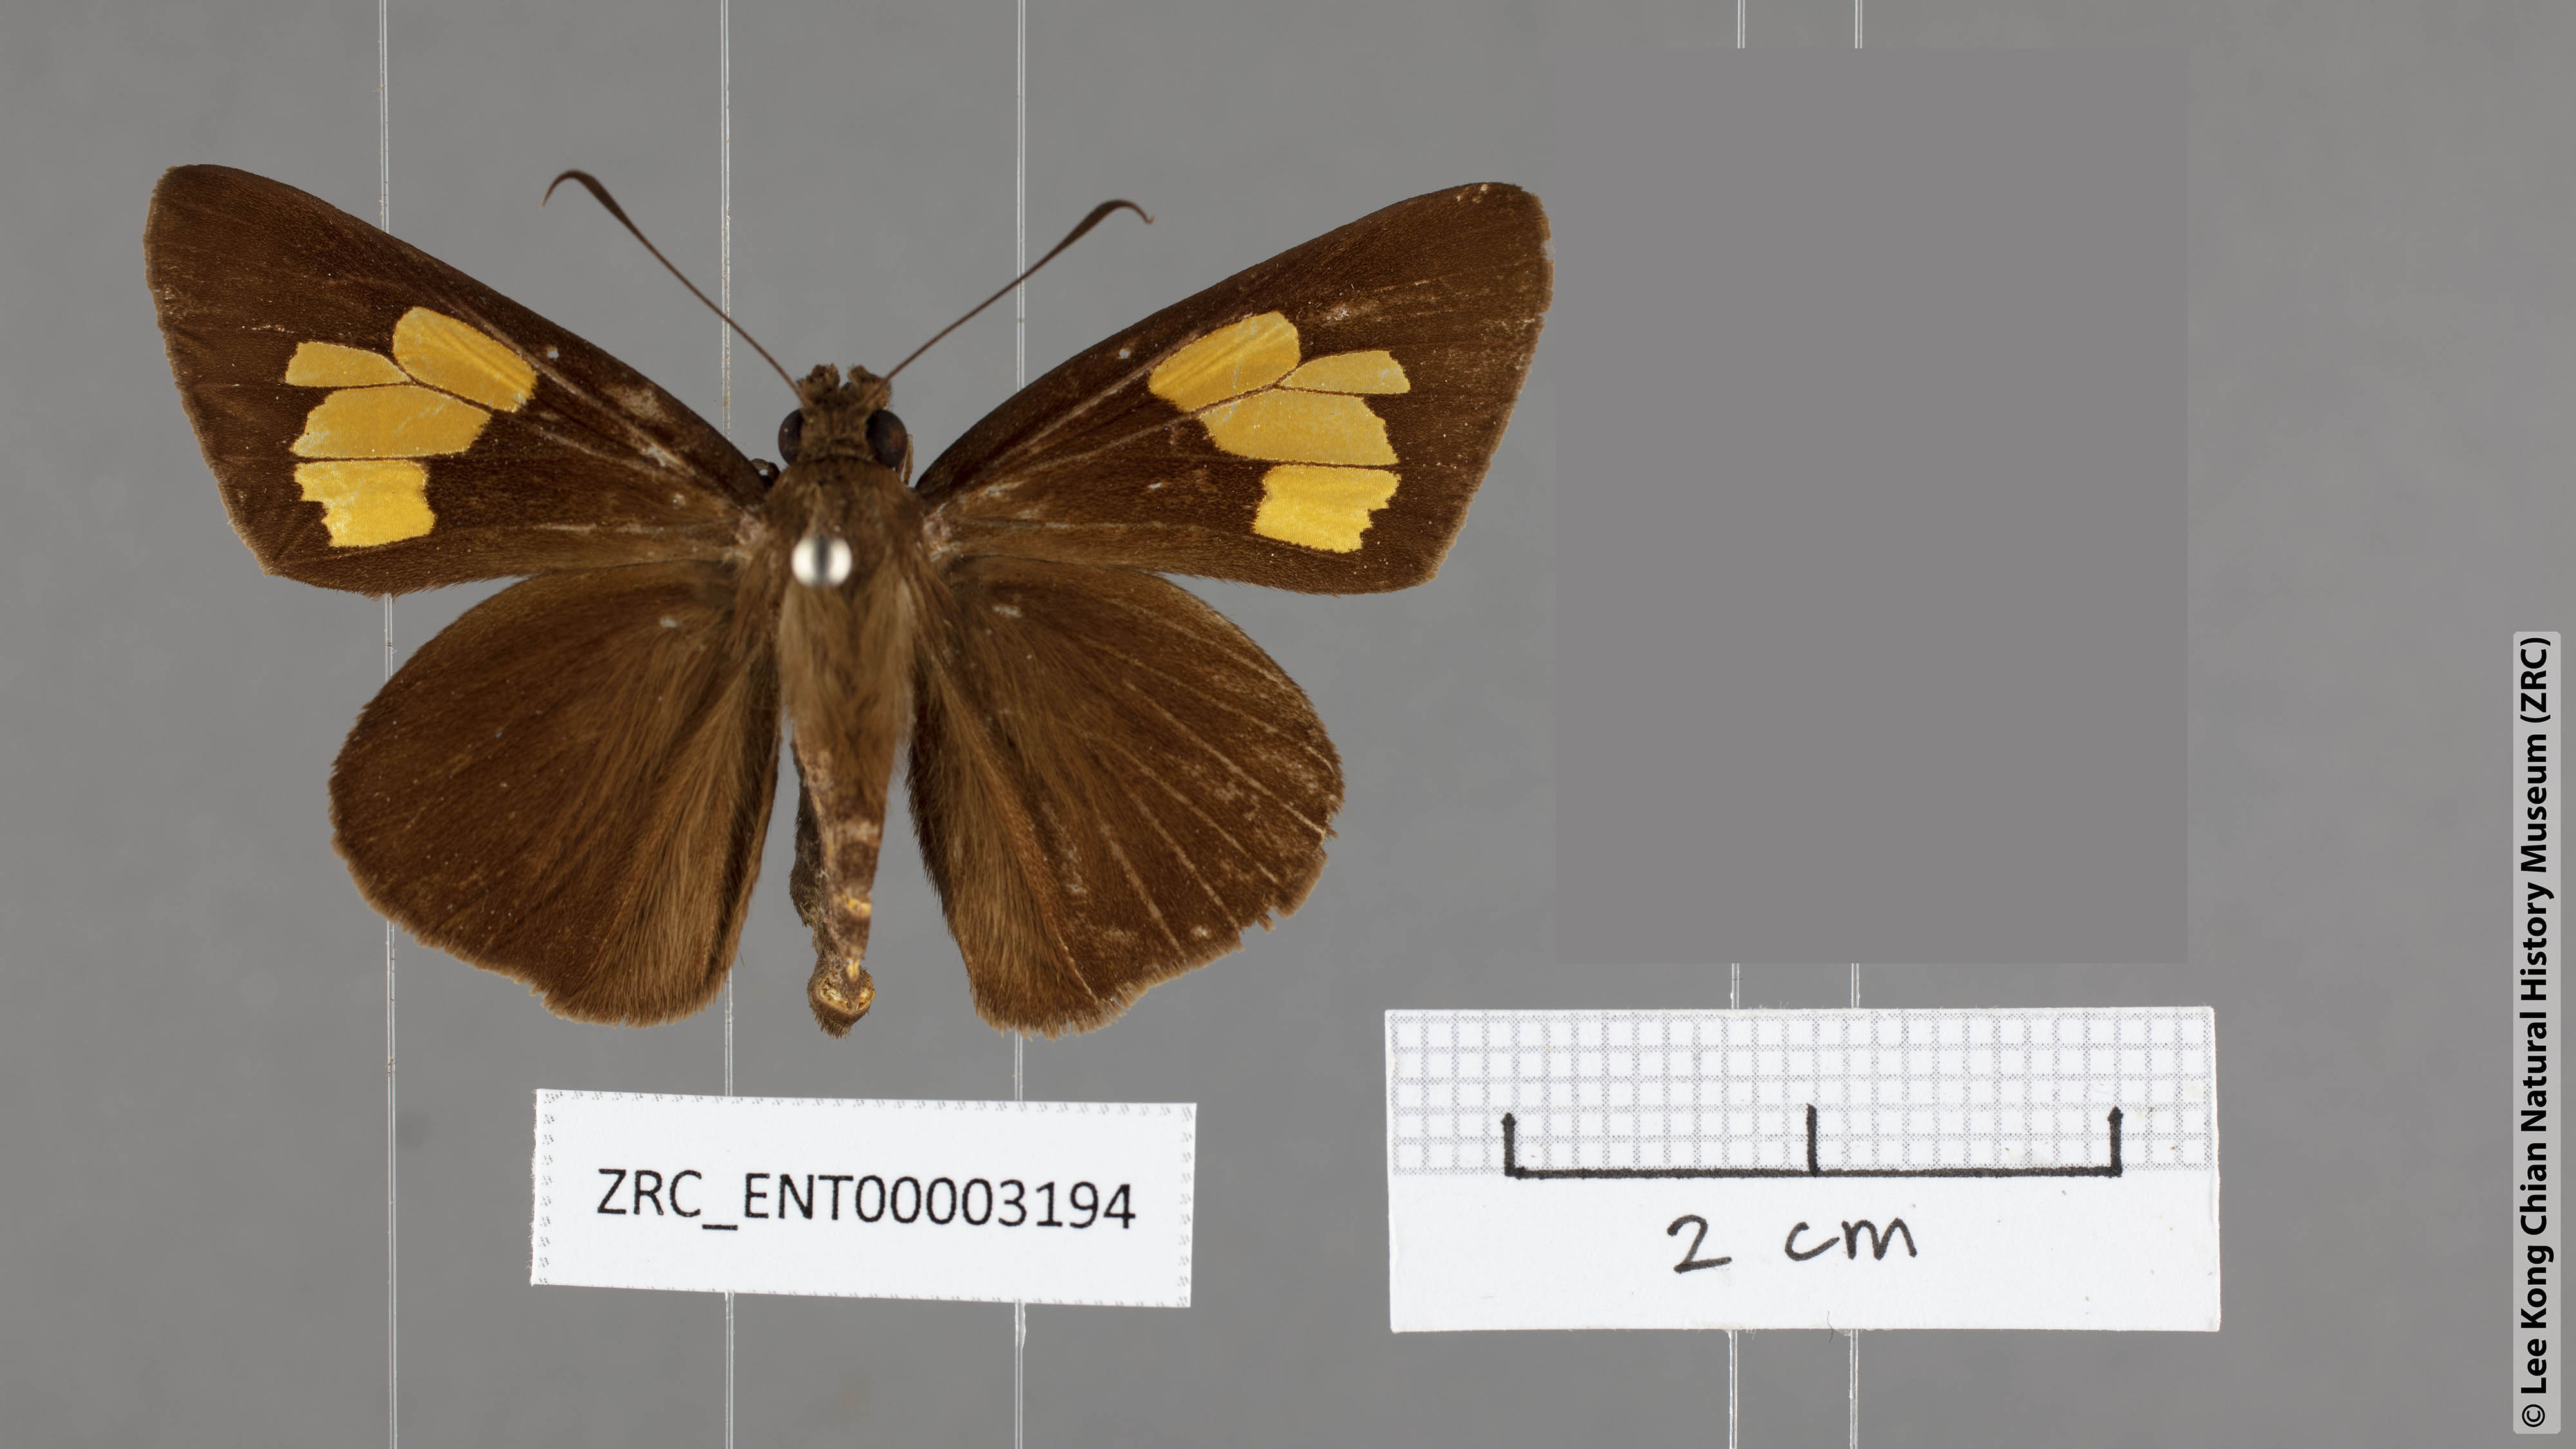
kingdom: Animalia
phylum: Arthropoda
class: Insecta
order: Lepidoptera
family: Hesperiidae
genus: Erionota
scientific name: Erionota
